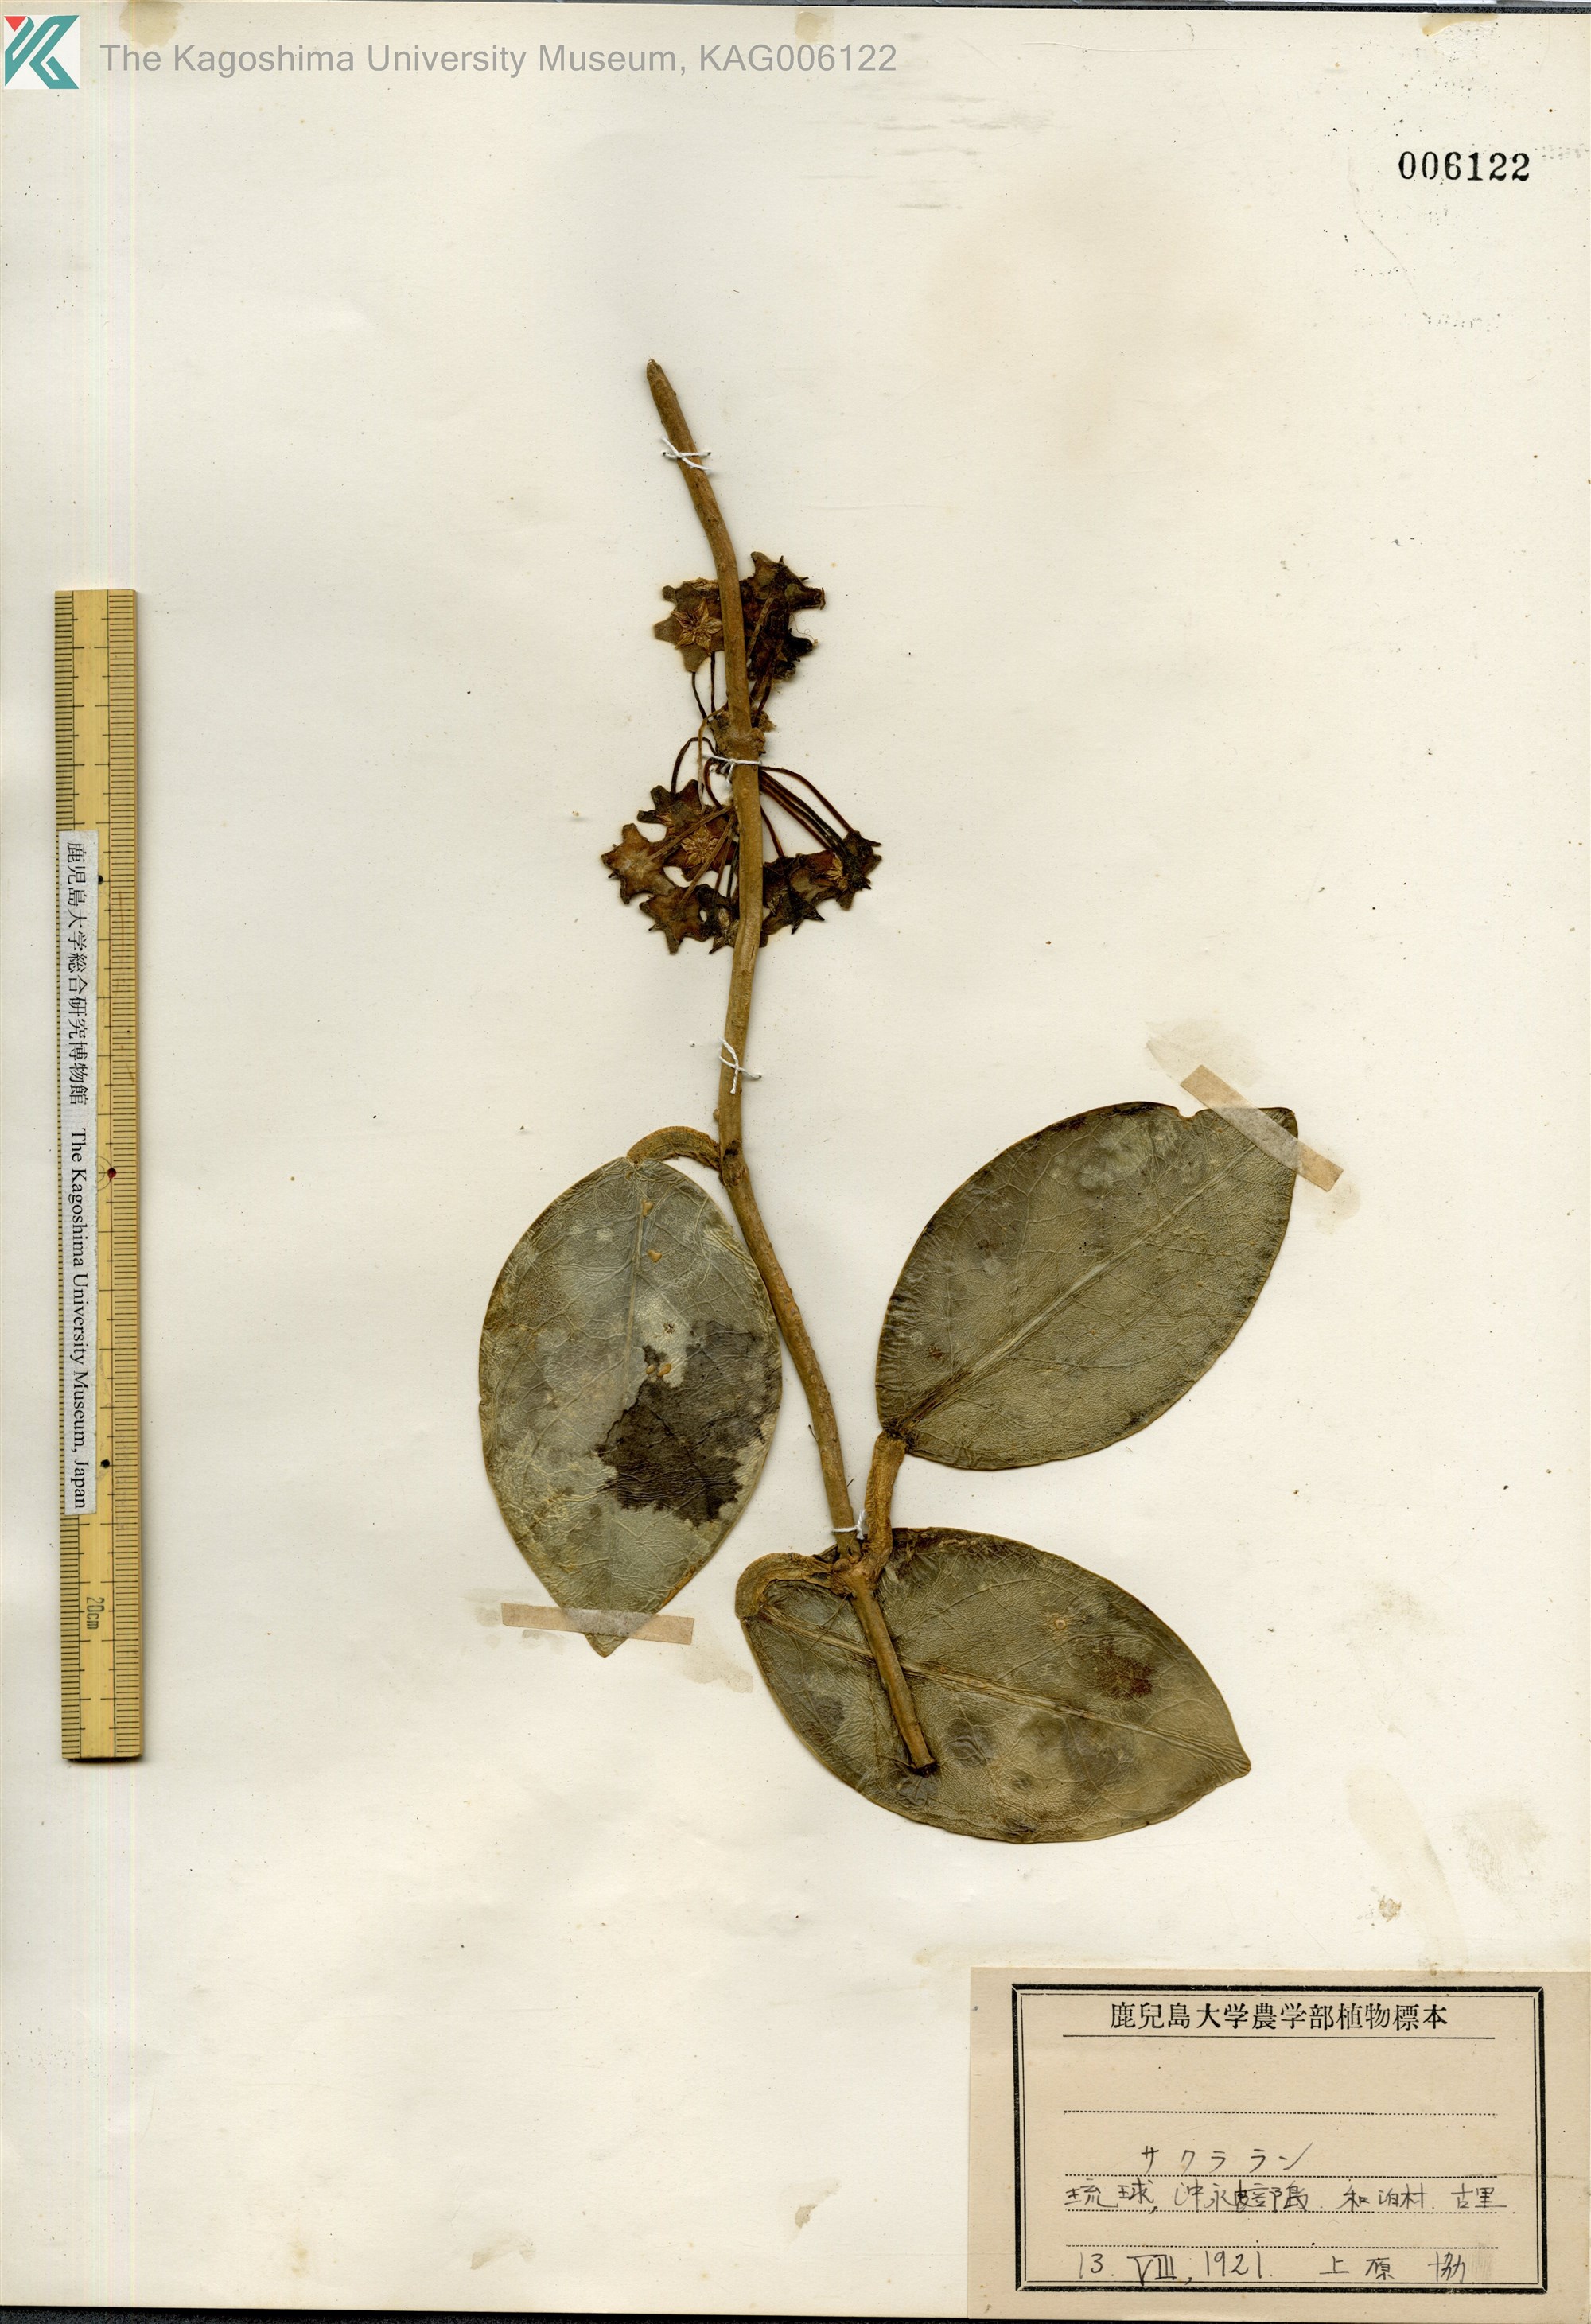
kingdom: Plantae
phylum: Tracheophyta
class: Magnoliopsida
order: Gentianales
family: Apocynaceae
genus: Hoya
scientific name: Hoya carnosa
